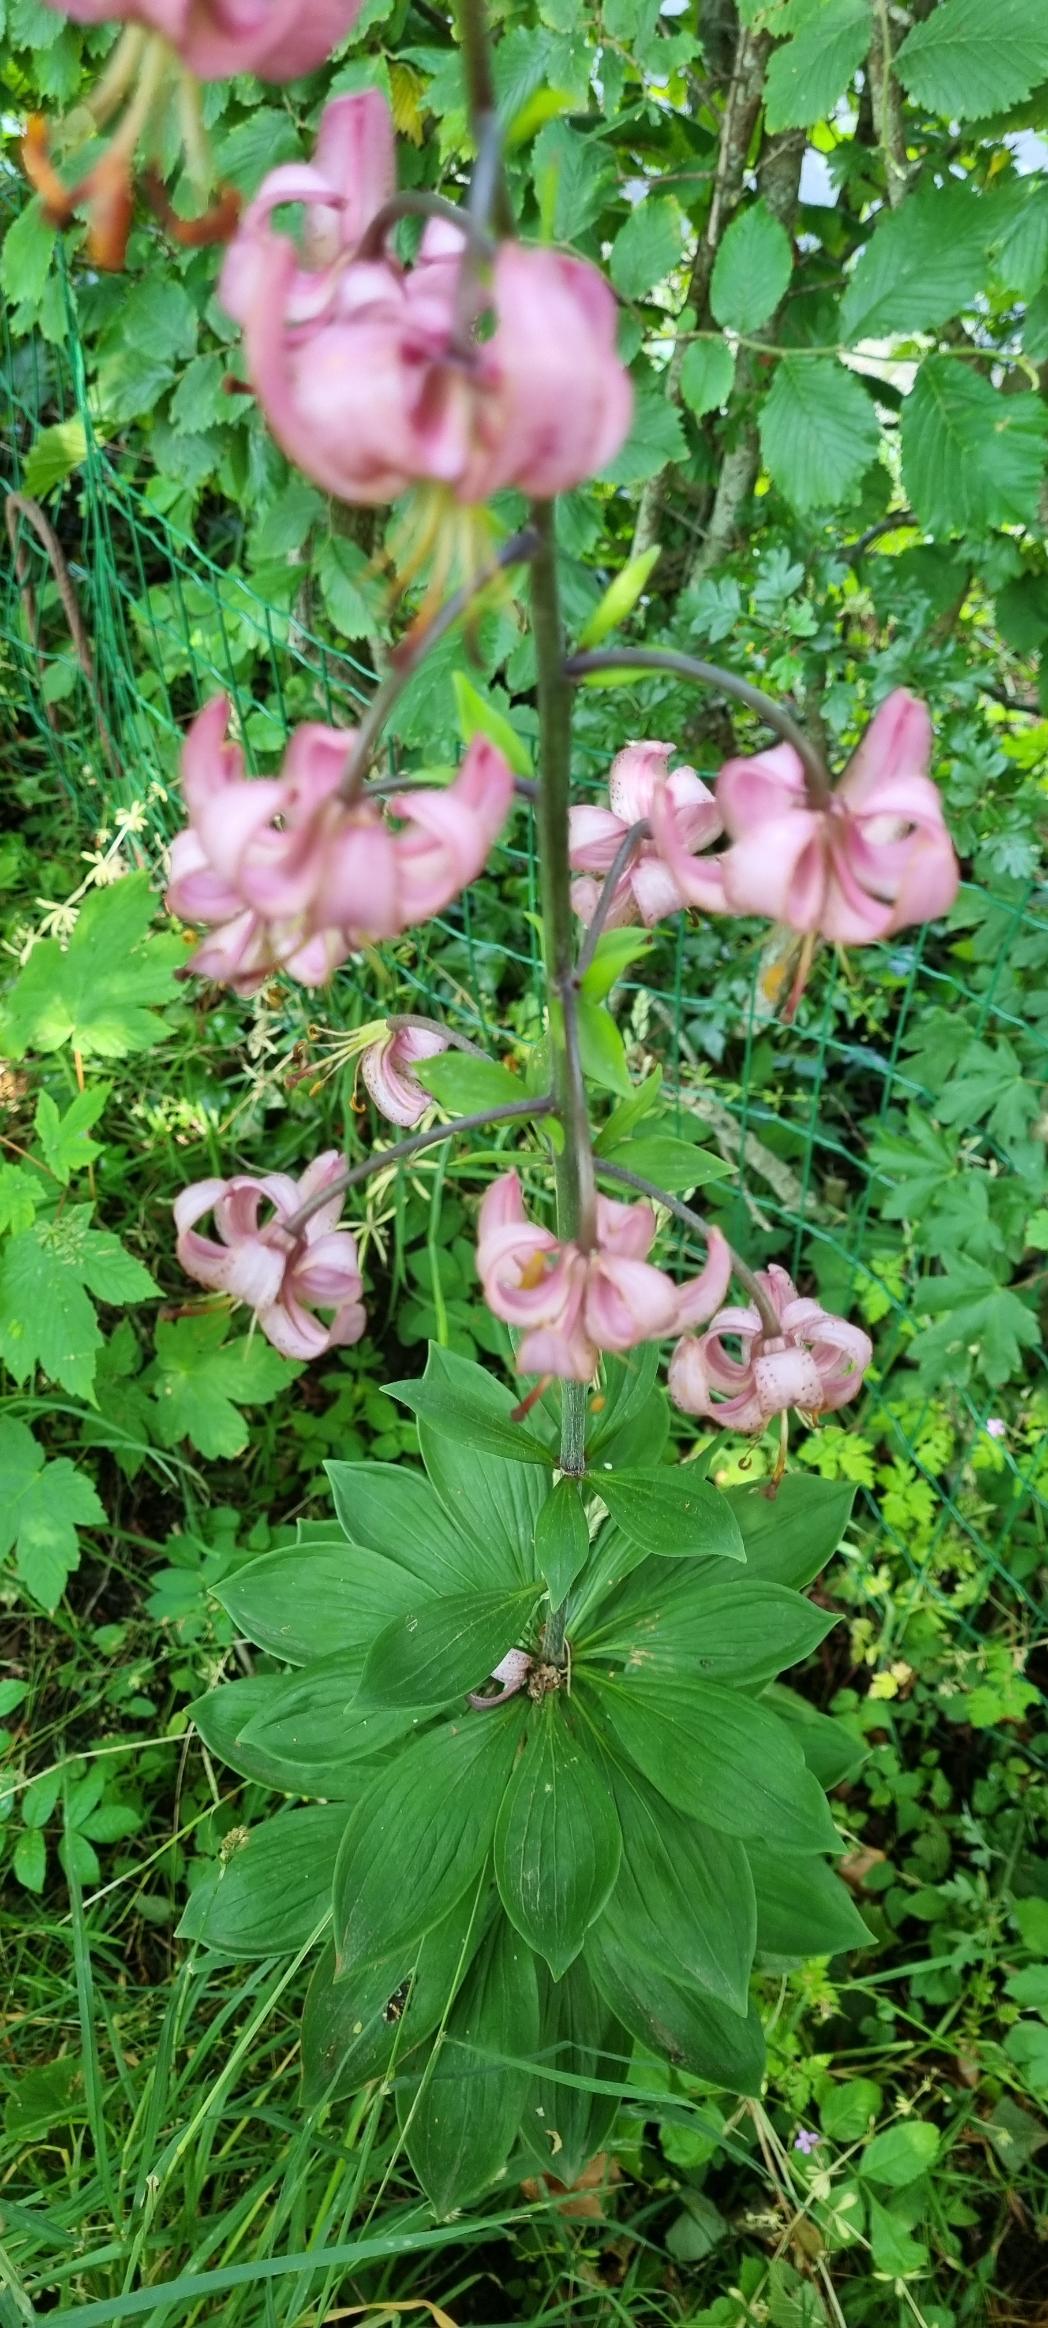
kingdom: Plantae
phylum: Tracheophyta
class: Liliopsida
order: Liliales
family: Liliaceae
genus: Lilium
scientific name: Lilium martagon
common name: Krans-lilje
